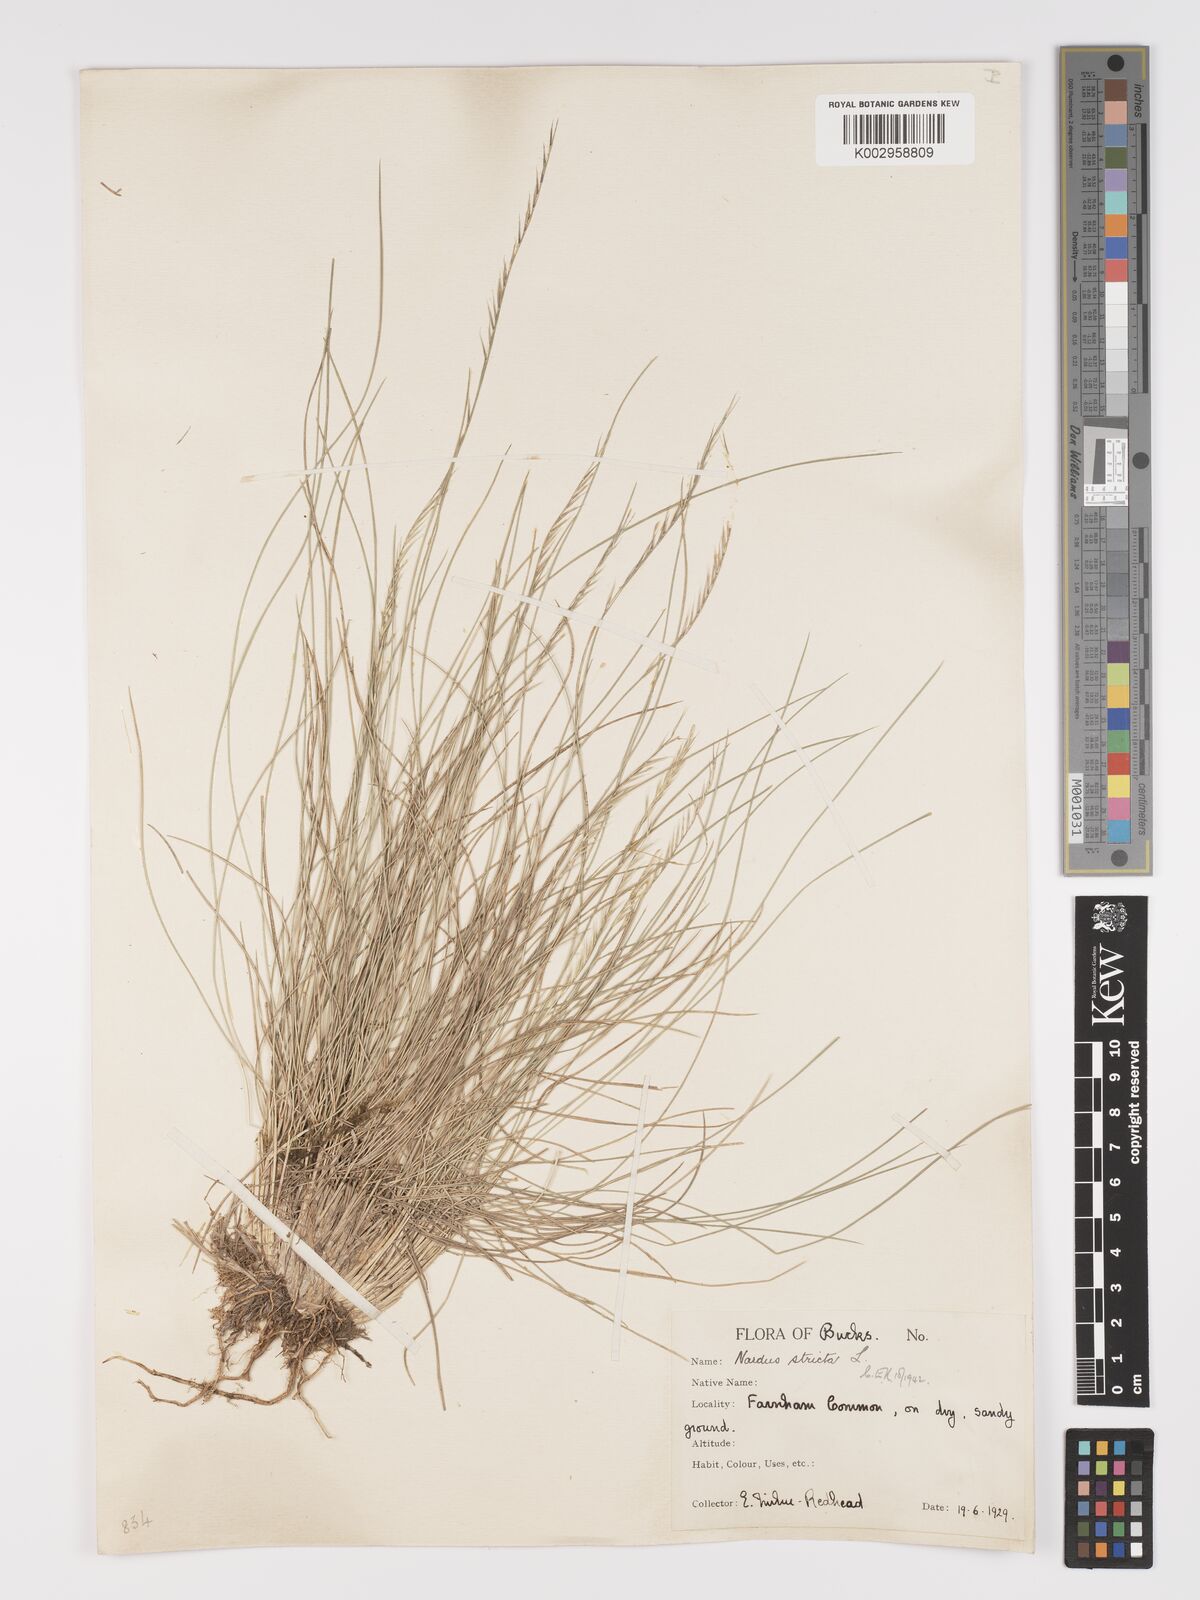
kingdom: Plantae
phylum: Tracheophyta
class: Liliopsida
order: Poales
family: Poaceae
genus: Nardus
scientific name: Nardus stricta
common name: Mat-grass
